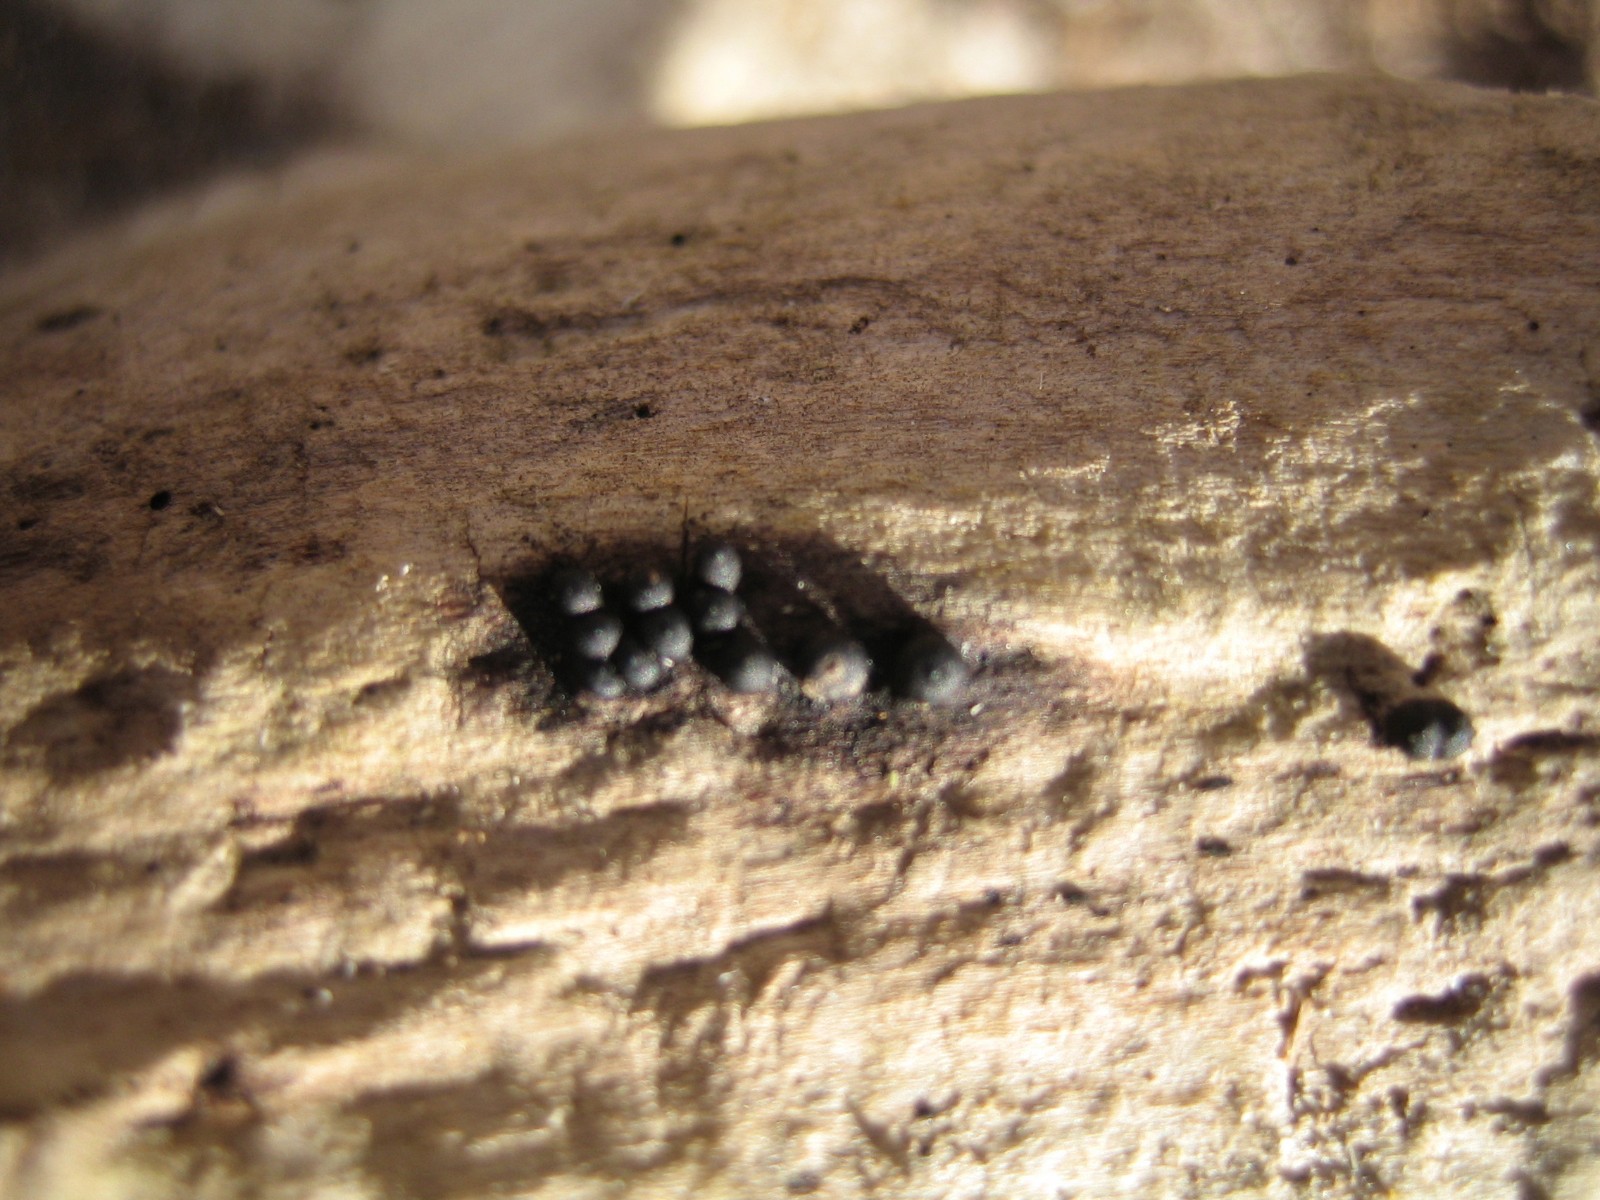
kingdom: Fungi
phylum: Ascomycota
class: Sordariomycetes
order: Xylariales
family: Xylariaceae
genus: Rosellinia
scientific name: Rosellinia
